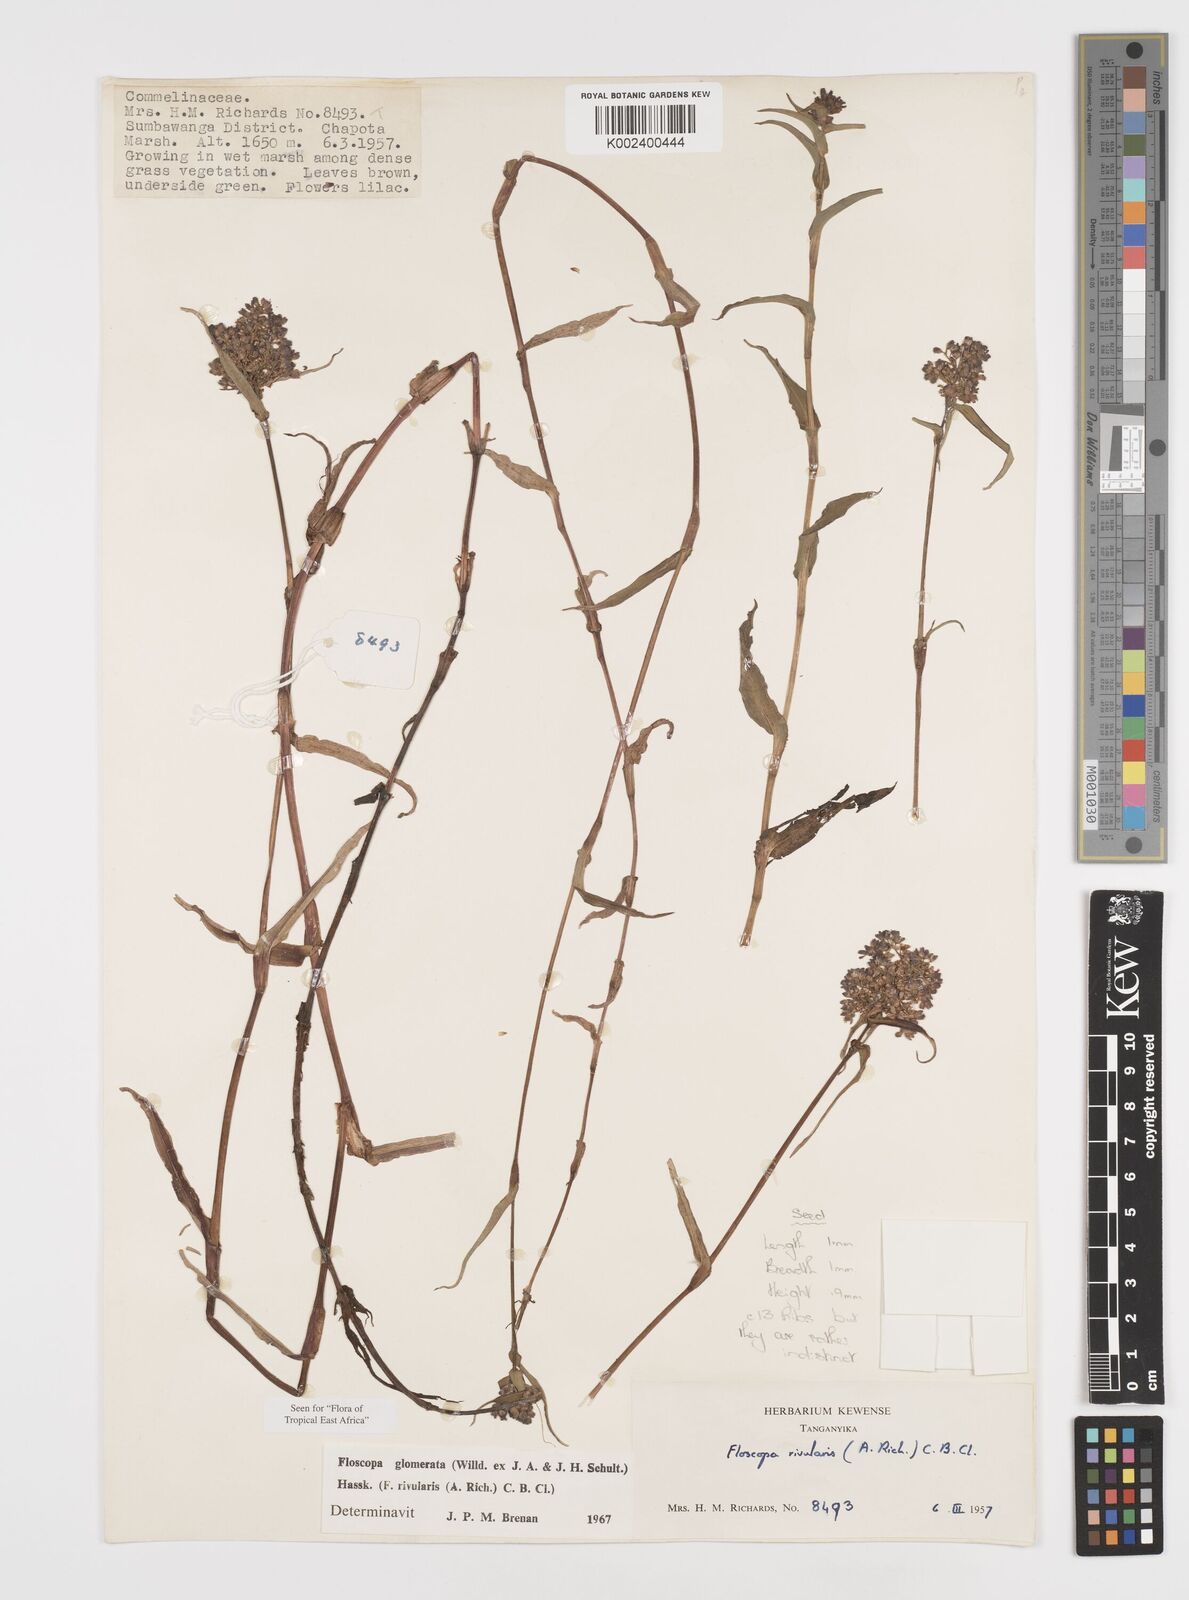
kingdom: Plantae
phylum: Tracheophyta
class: Liliopsida
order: Commelinales
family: Commelinaceae
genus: Floscopa
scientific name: Floscopa glomerata
